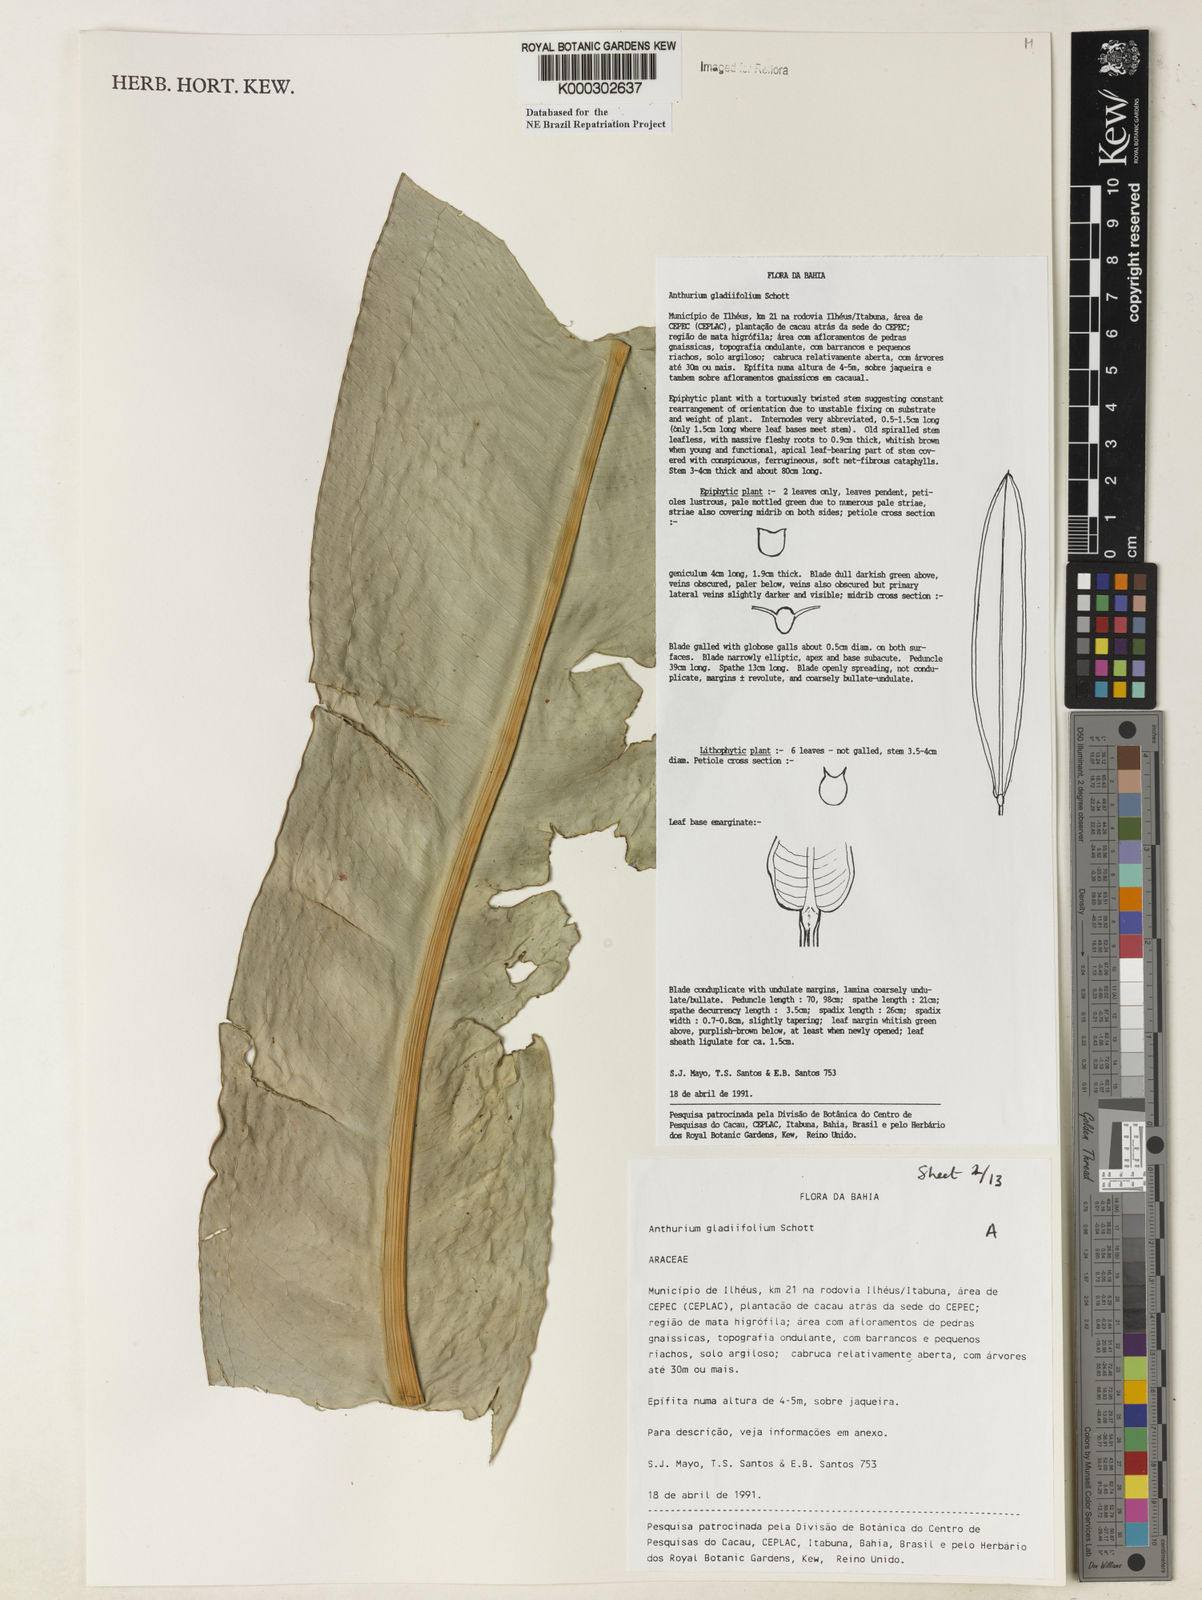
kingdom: Plantae
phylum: Tracheophyta
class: Liliopsida
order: Alismatales
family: Araceae
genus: Anthurium
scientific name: Anthurium gladiifolium
